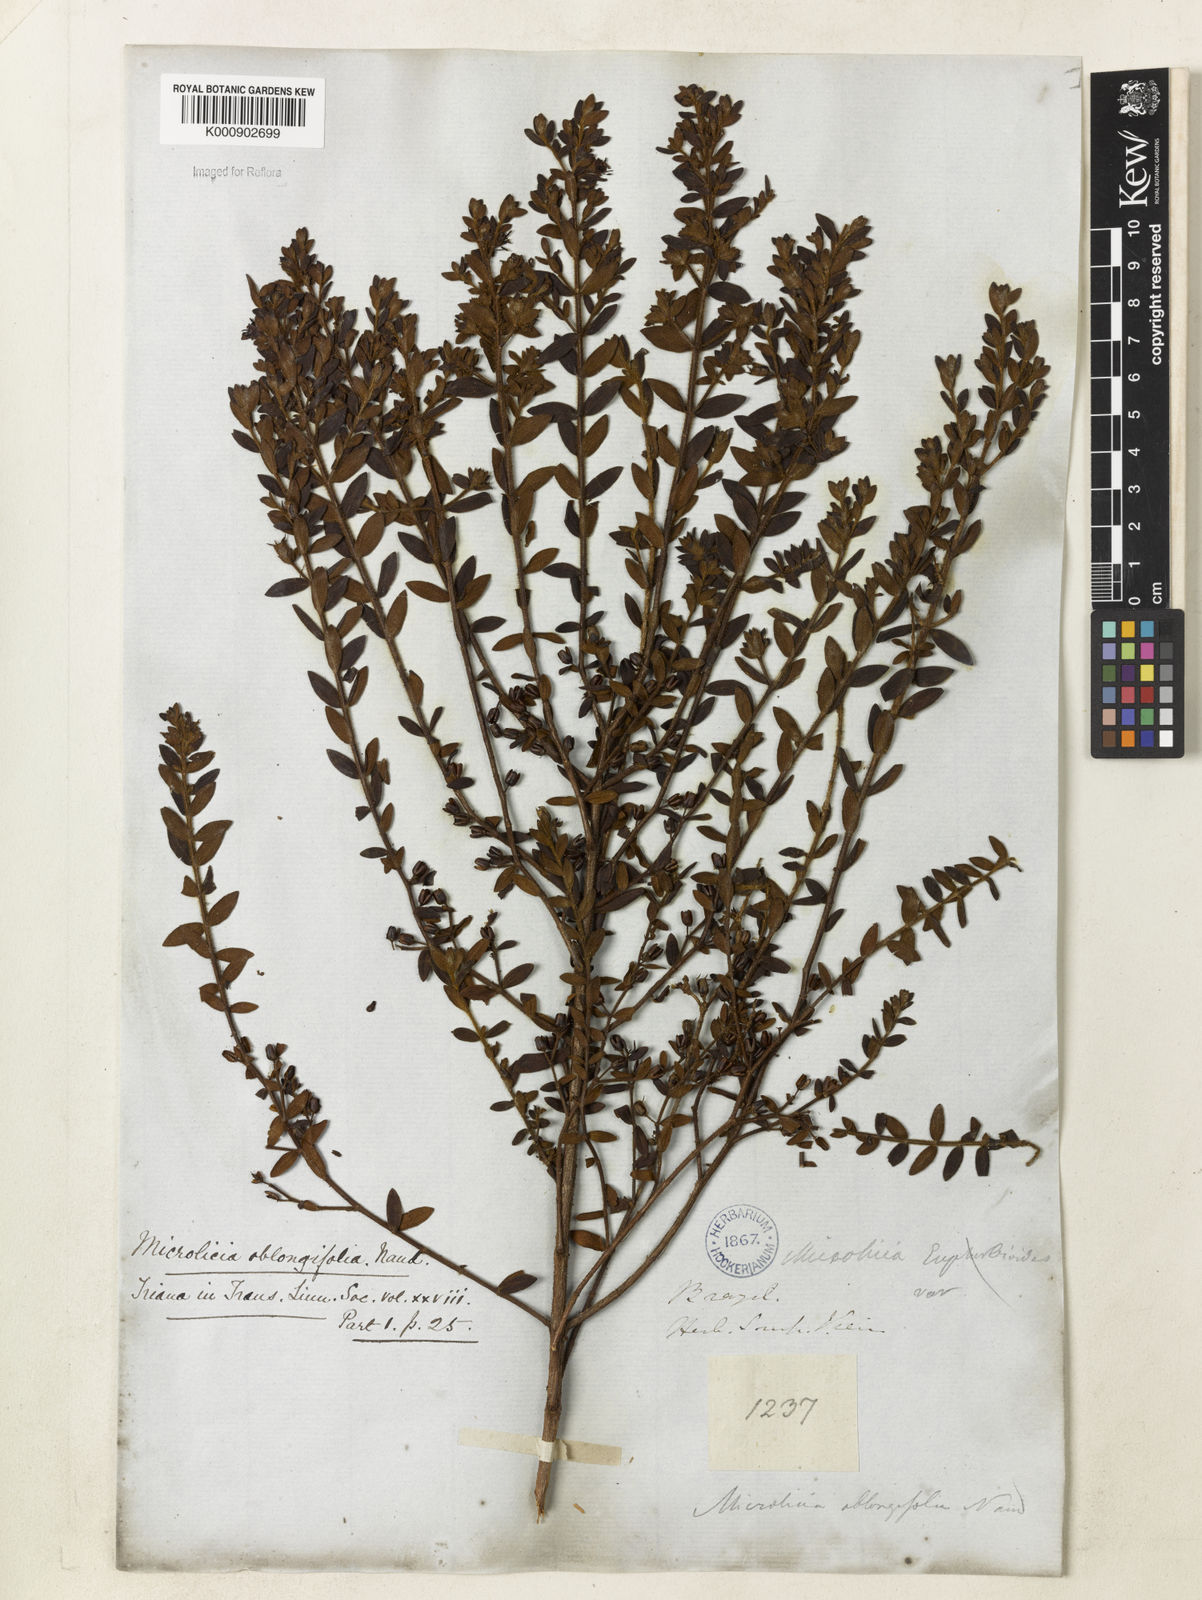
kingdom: Plantae
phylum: Tracheophyta
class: Magnoliopsida
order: Myrtales
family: Melastomataceae
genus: Microlicia
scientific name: Microlicia euphorbioides
